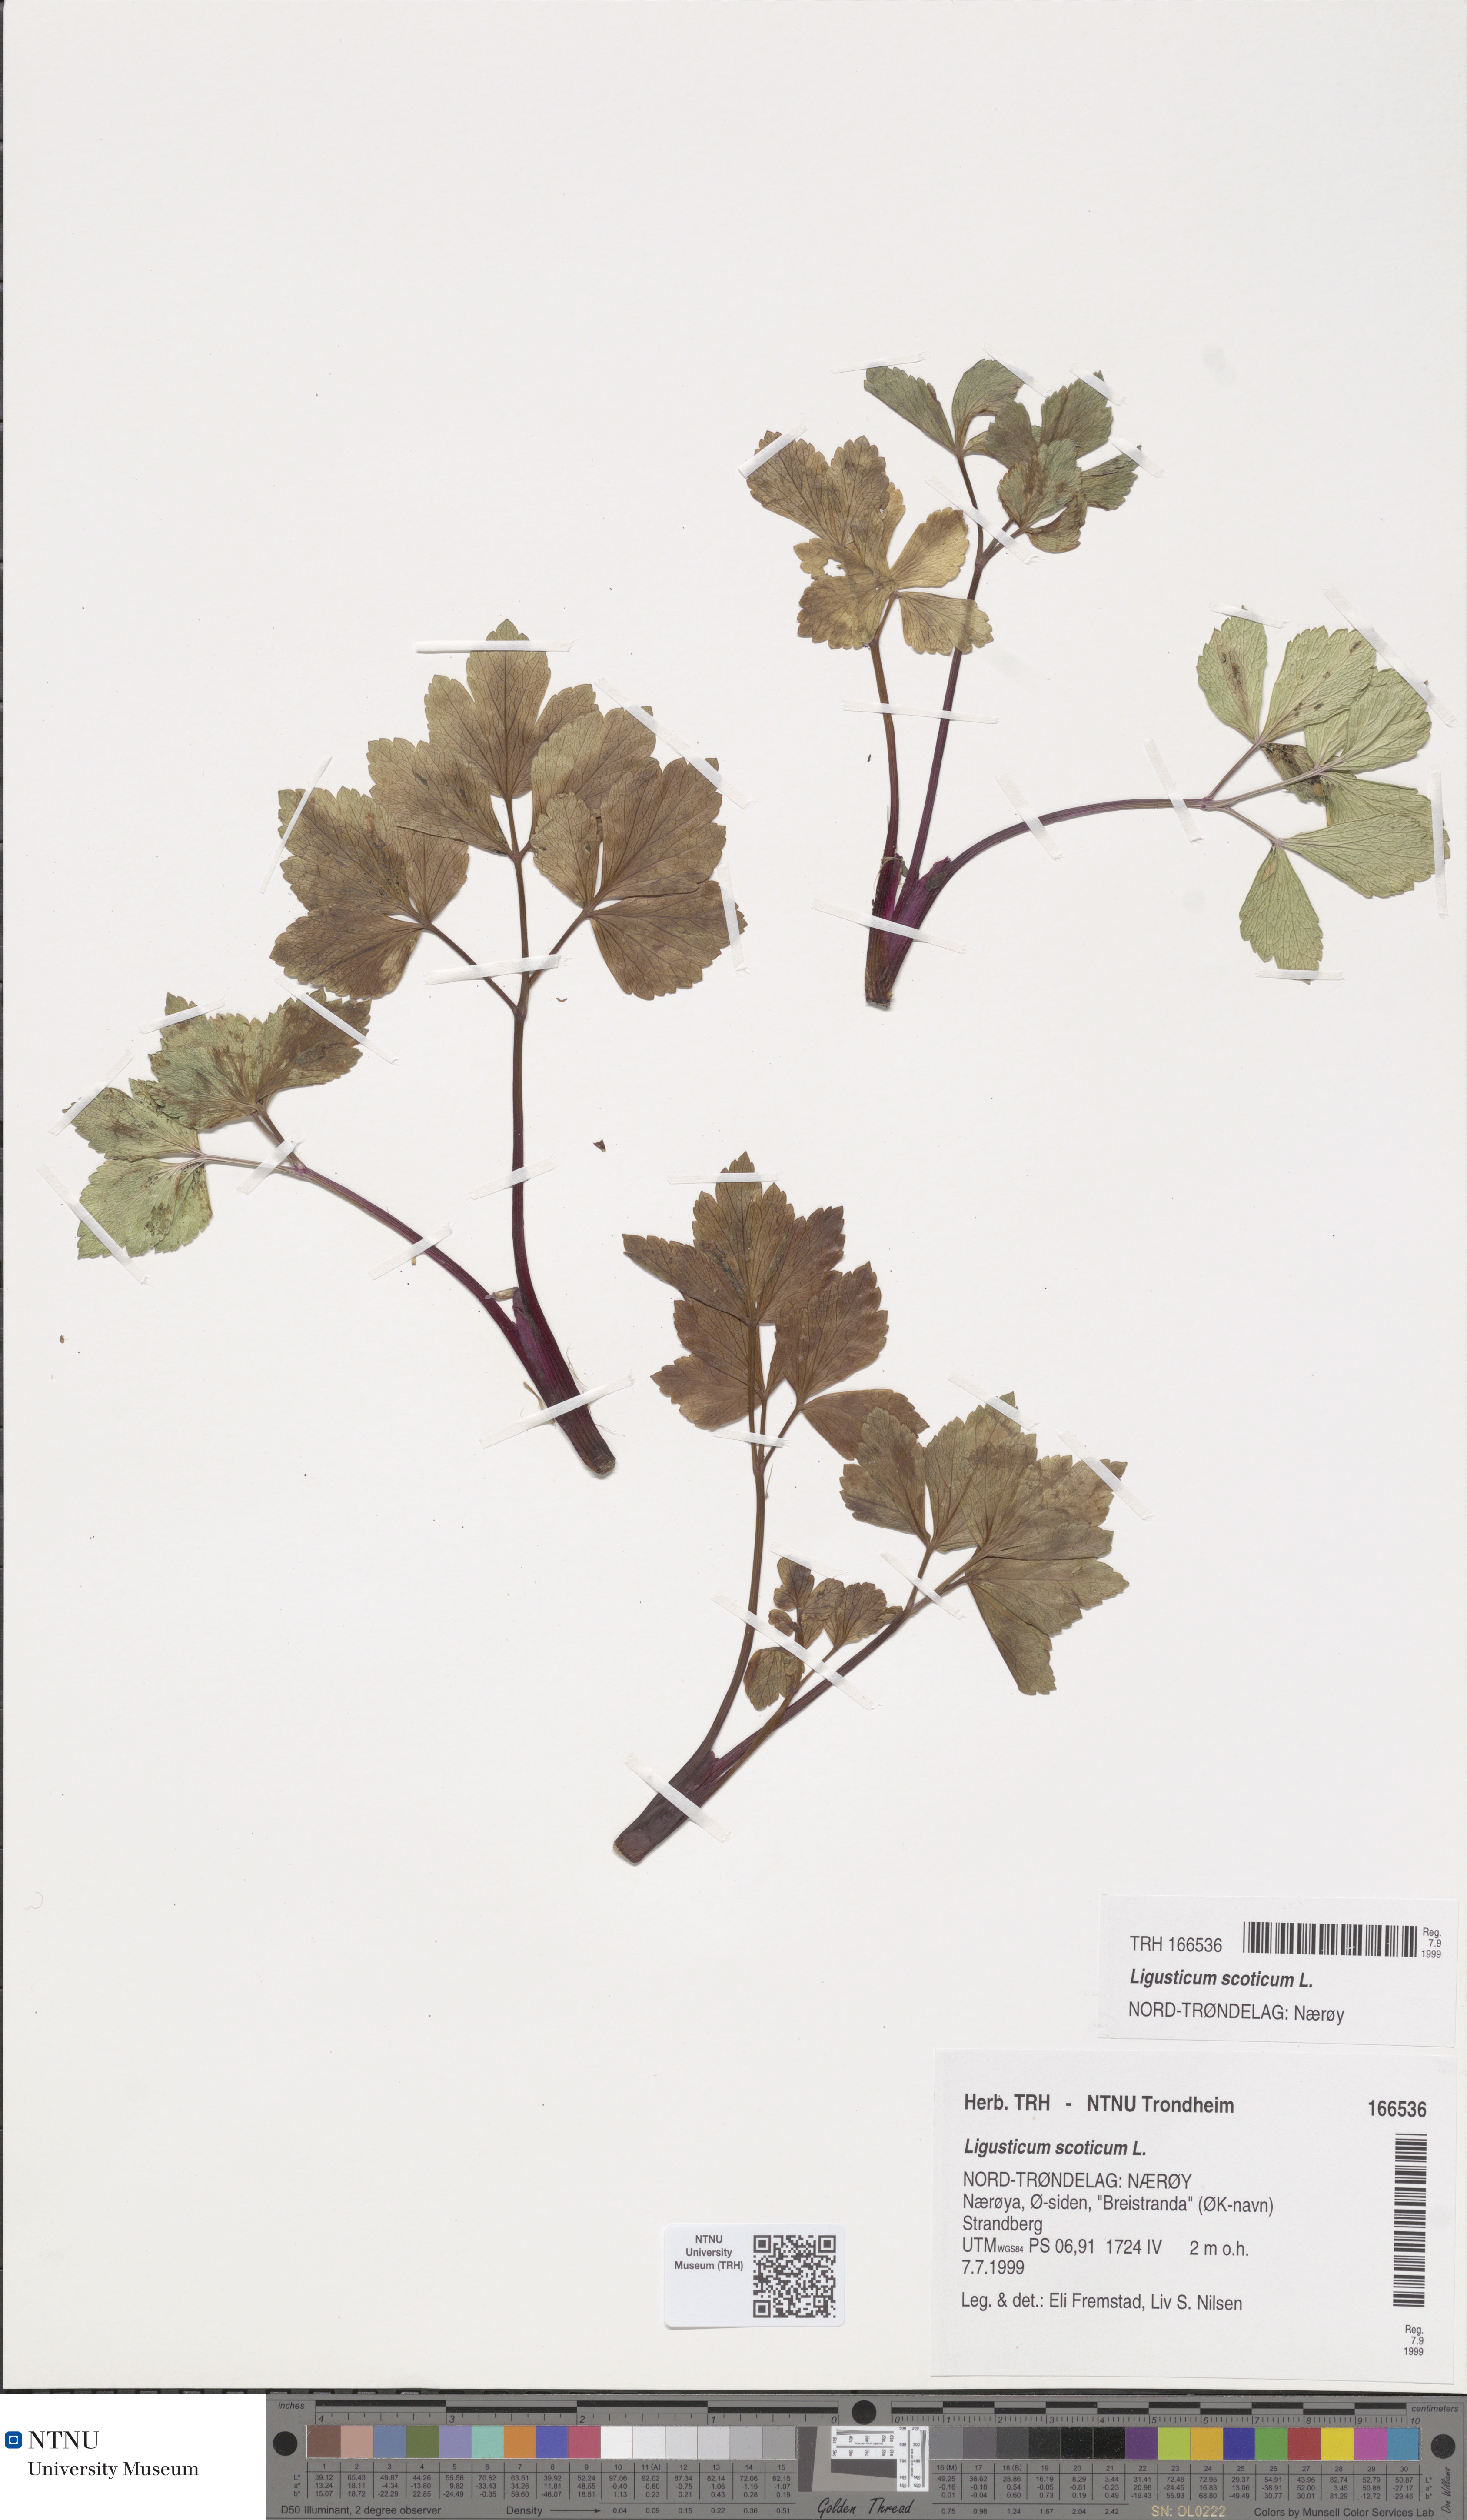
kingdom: Plantae
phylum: Tracheophyta
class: Magnoliopsida
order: Apiales
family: Apiaceae
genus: Ligusticum
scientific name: Ligusticum scothicum
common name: Beach lovage
